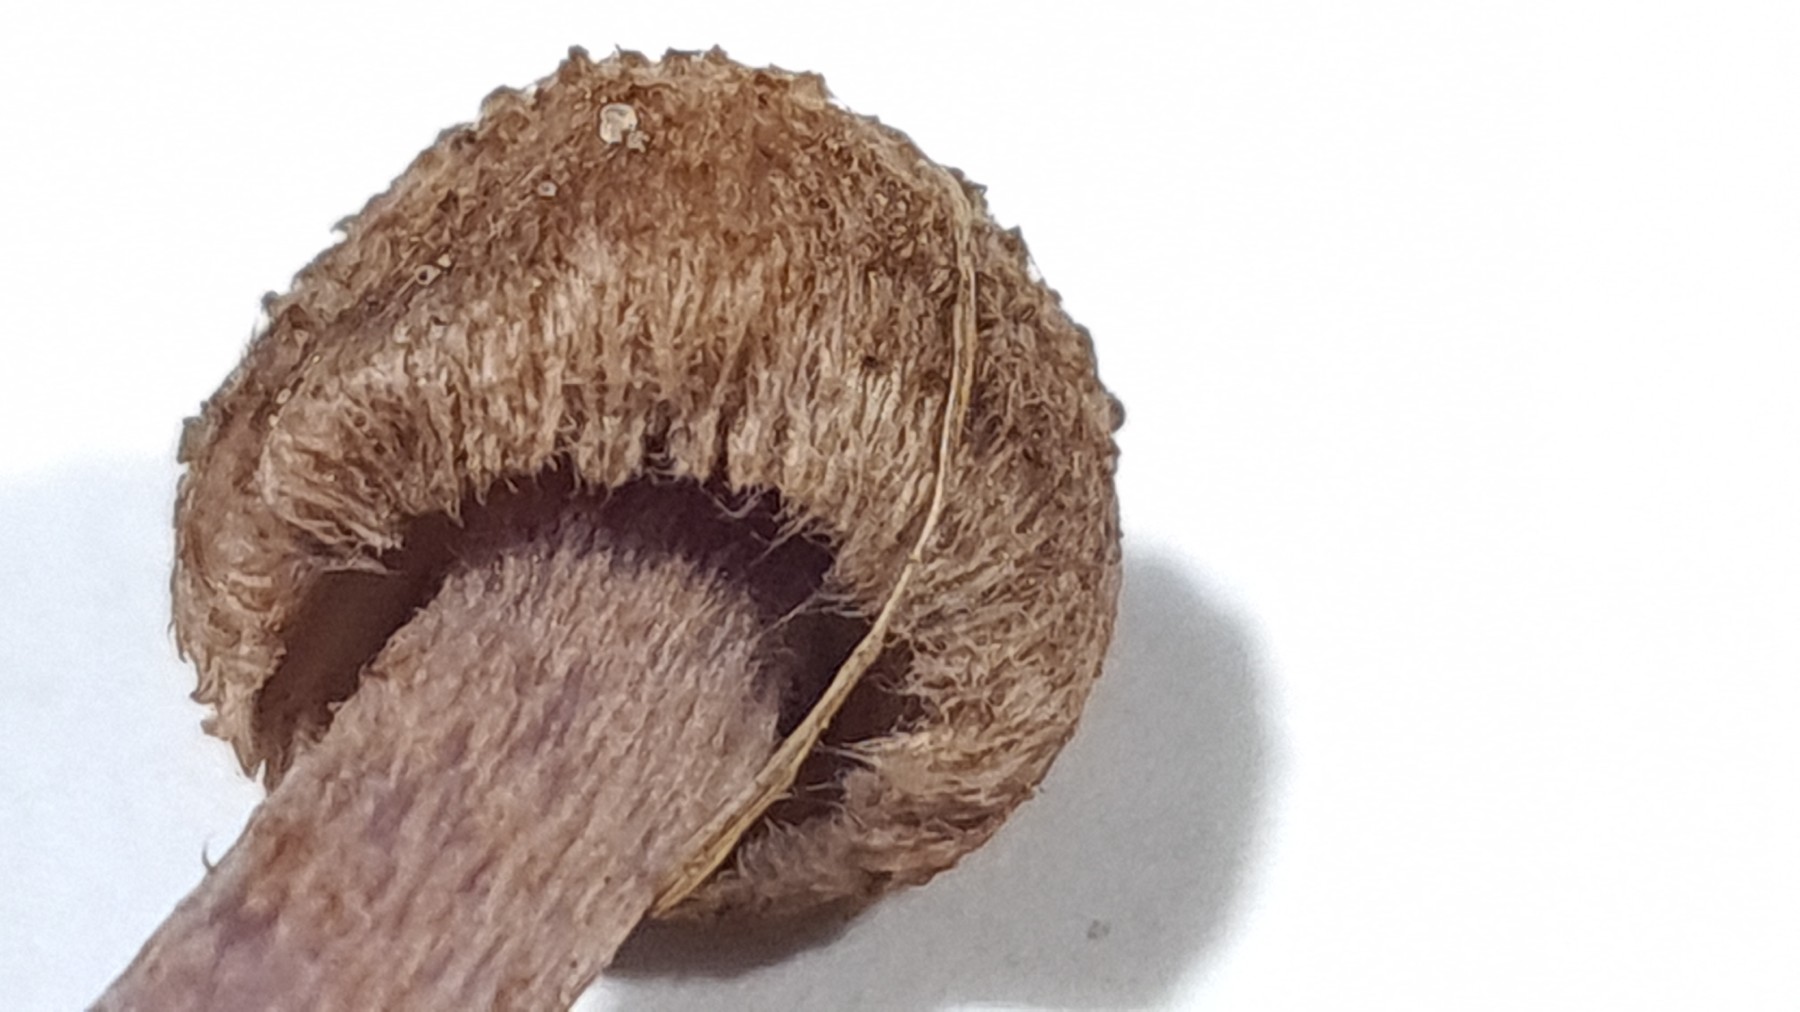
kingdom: Fungi
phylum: Basidiomycota
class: Agaricomycetes
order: Agaricales
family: Inocybaceae
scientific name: Inocybaceae
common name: trævlhatfamilien
